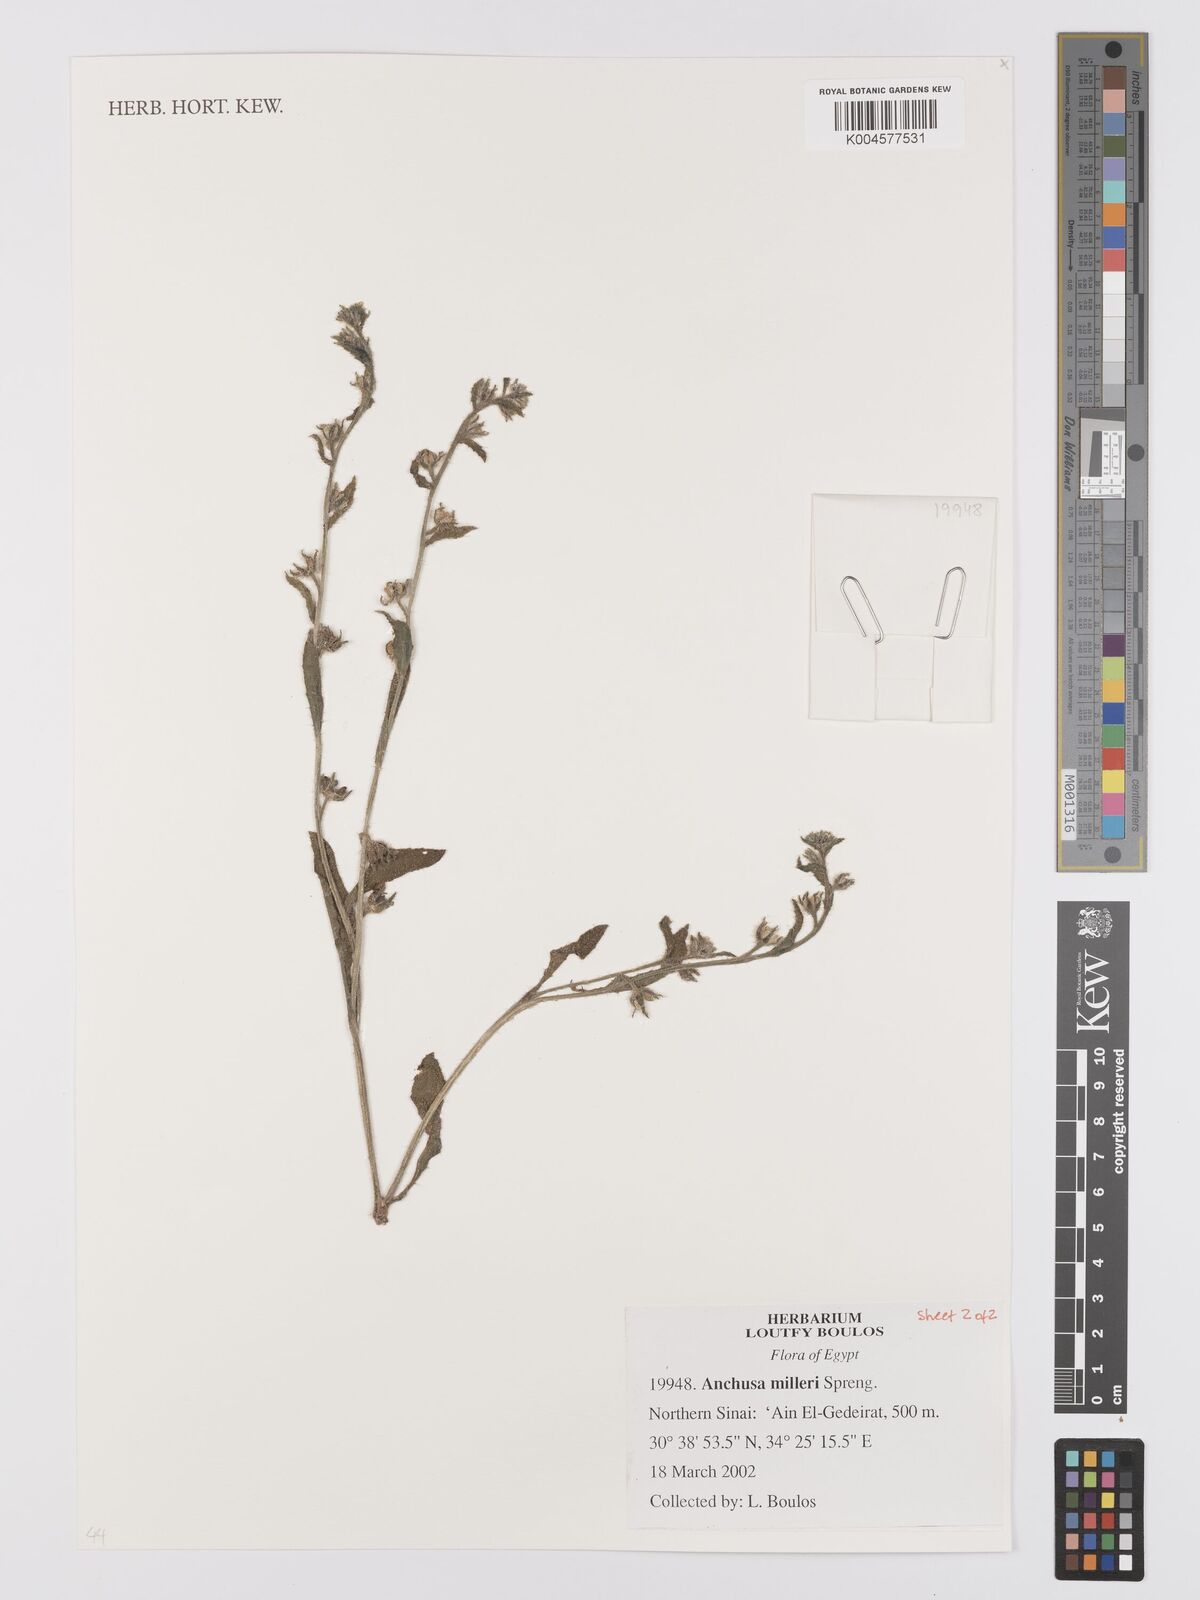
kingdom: Plantae
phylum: Tracheophyta
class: Magnoliopsida
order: Boraginales
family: Boraginaceae
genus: Anchusa
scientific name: Anchusa milleri
